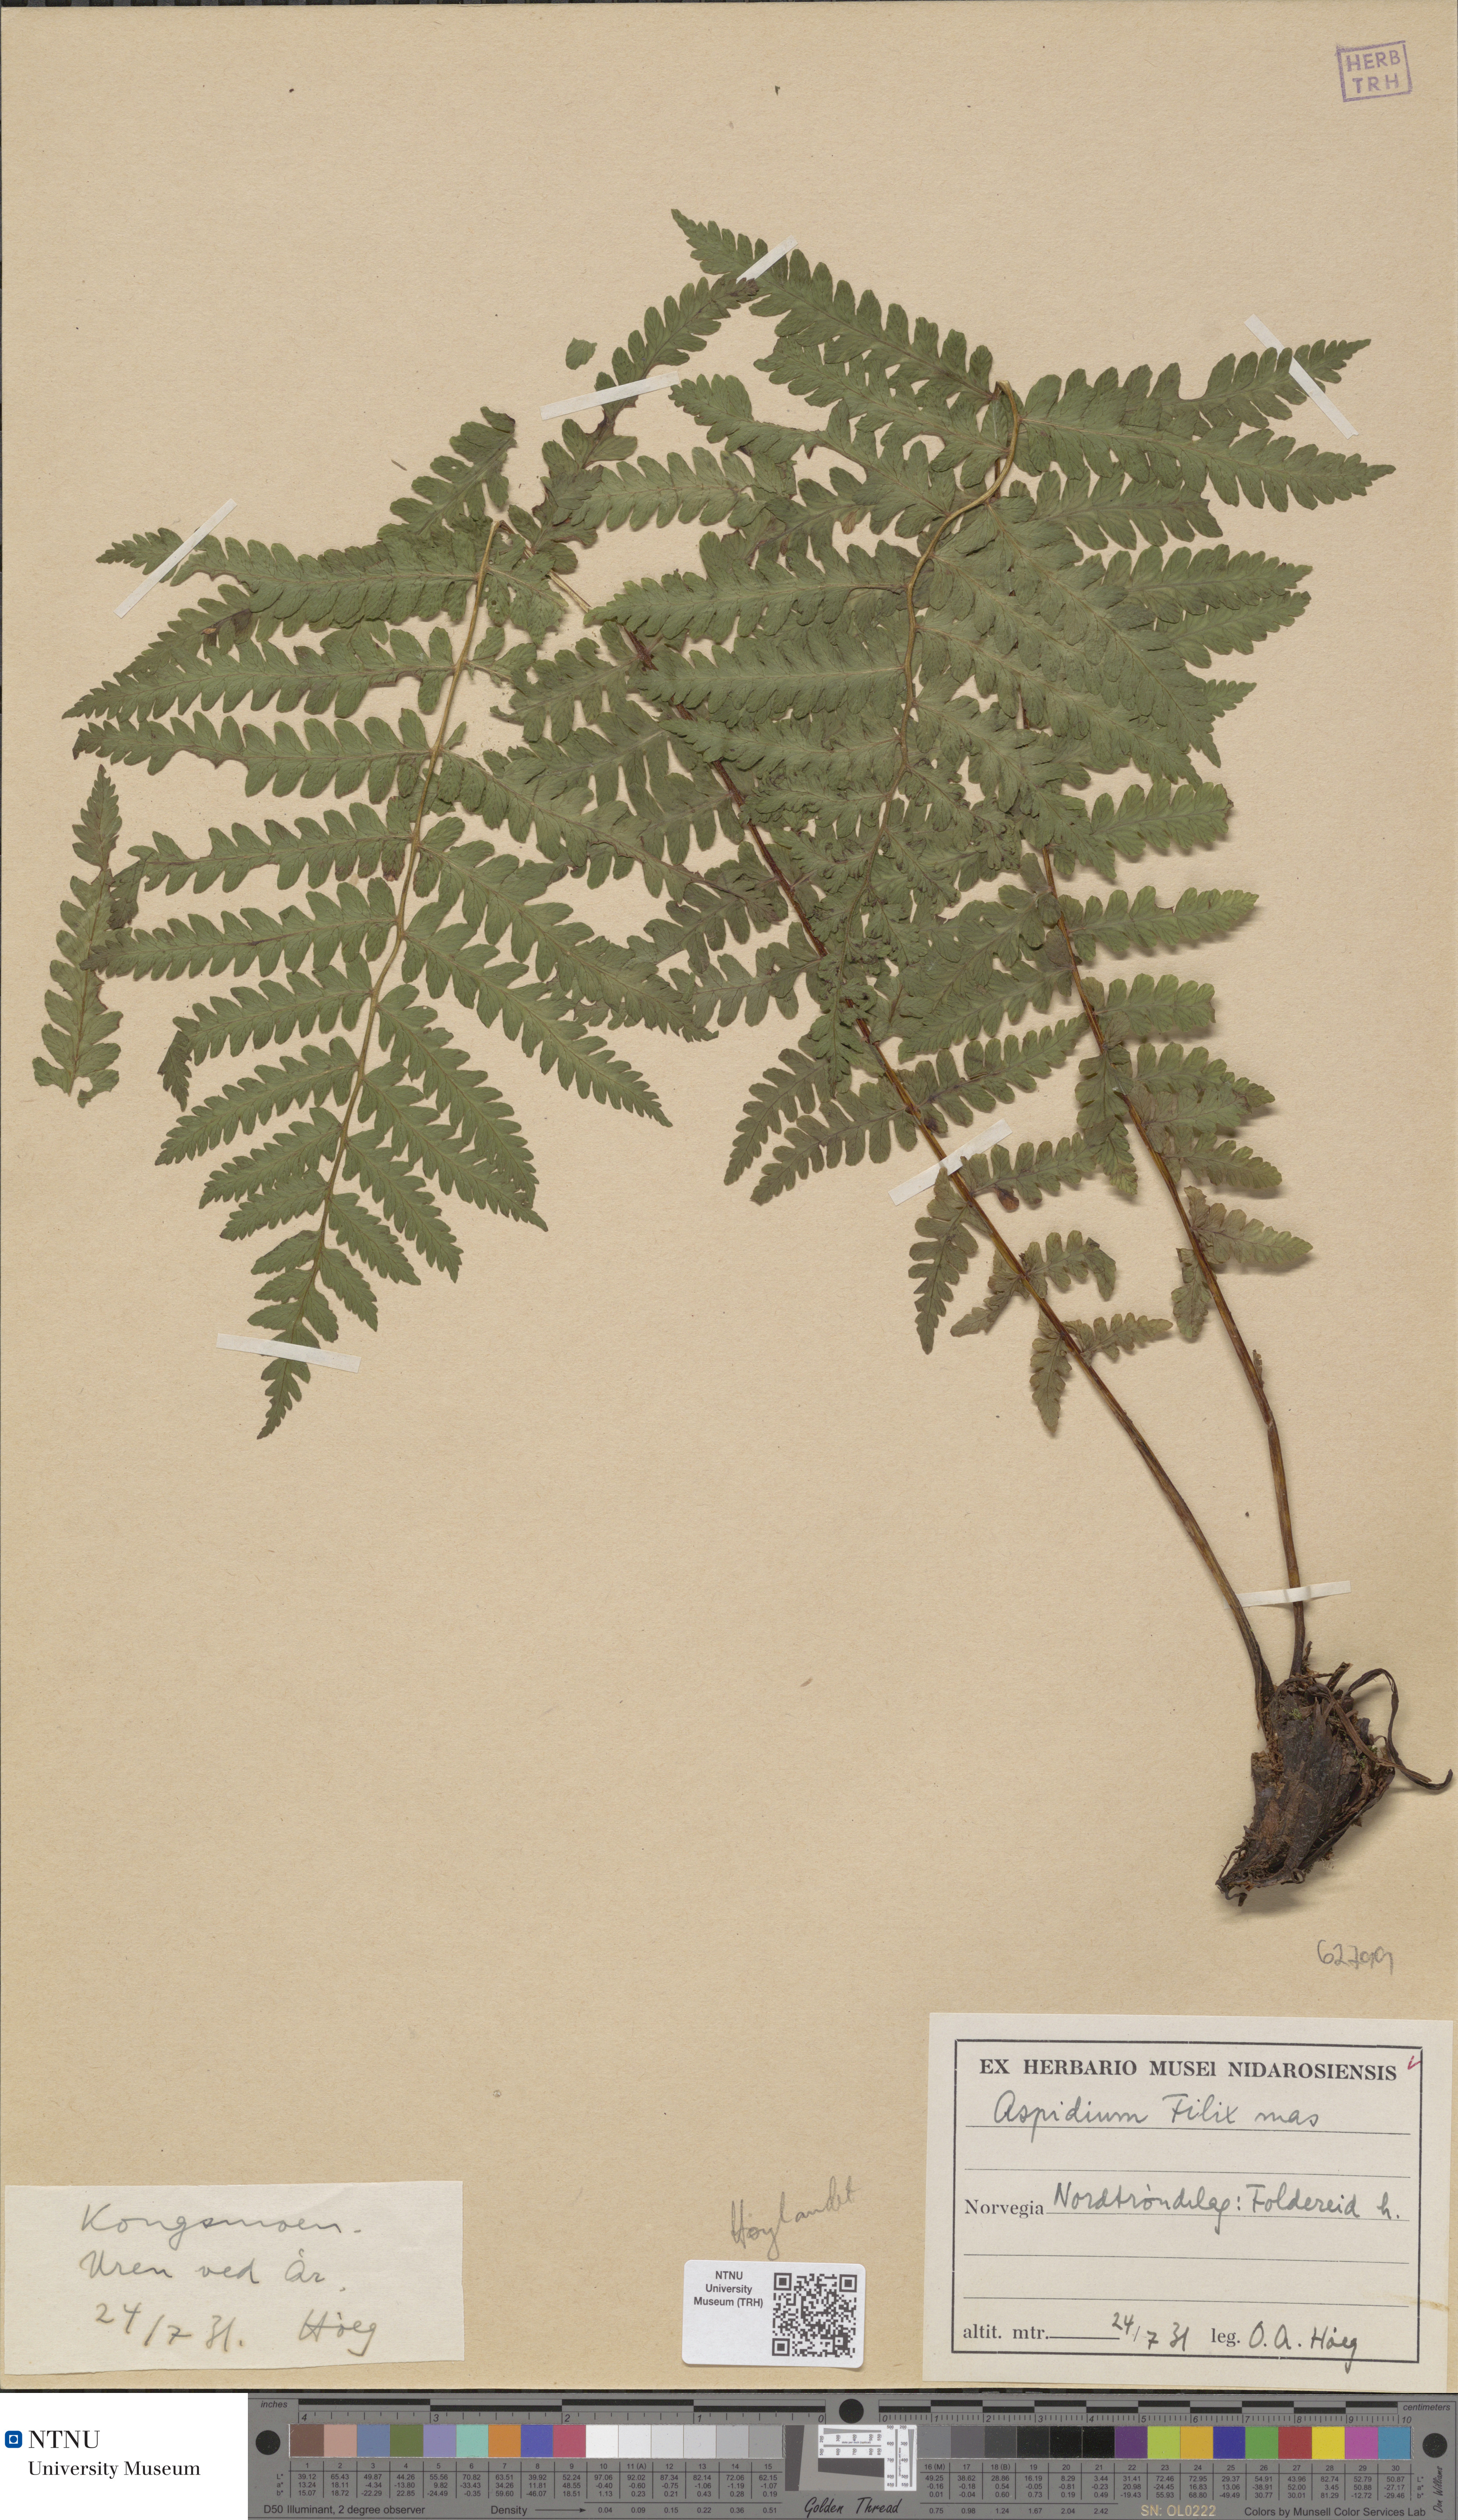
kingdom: Plantae
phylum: Tracheophyta
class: Polypodiopsida
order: Polypodiales
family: Onocleaceae
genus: Matteuccia
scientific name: Matteuccia struthiopteris
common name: Ostrich fern
